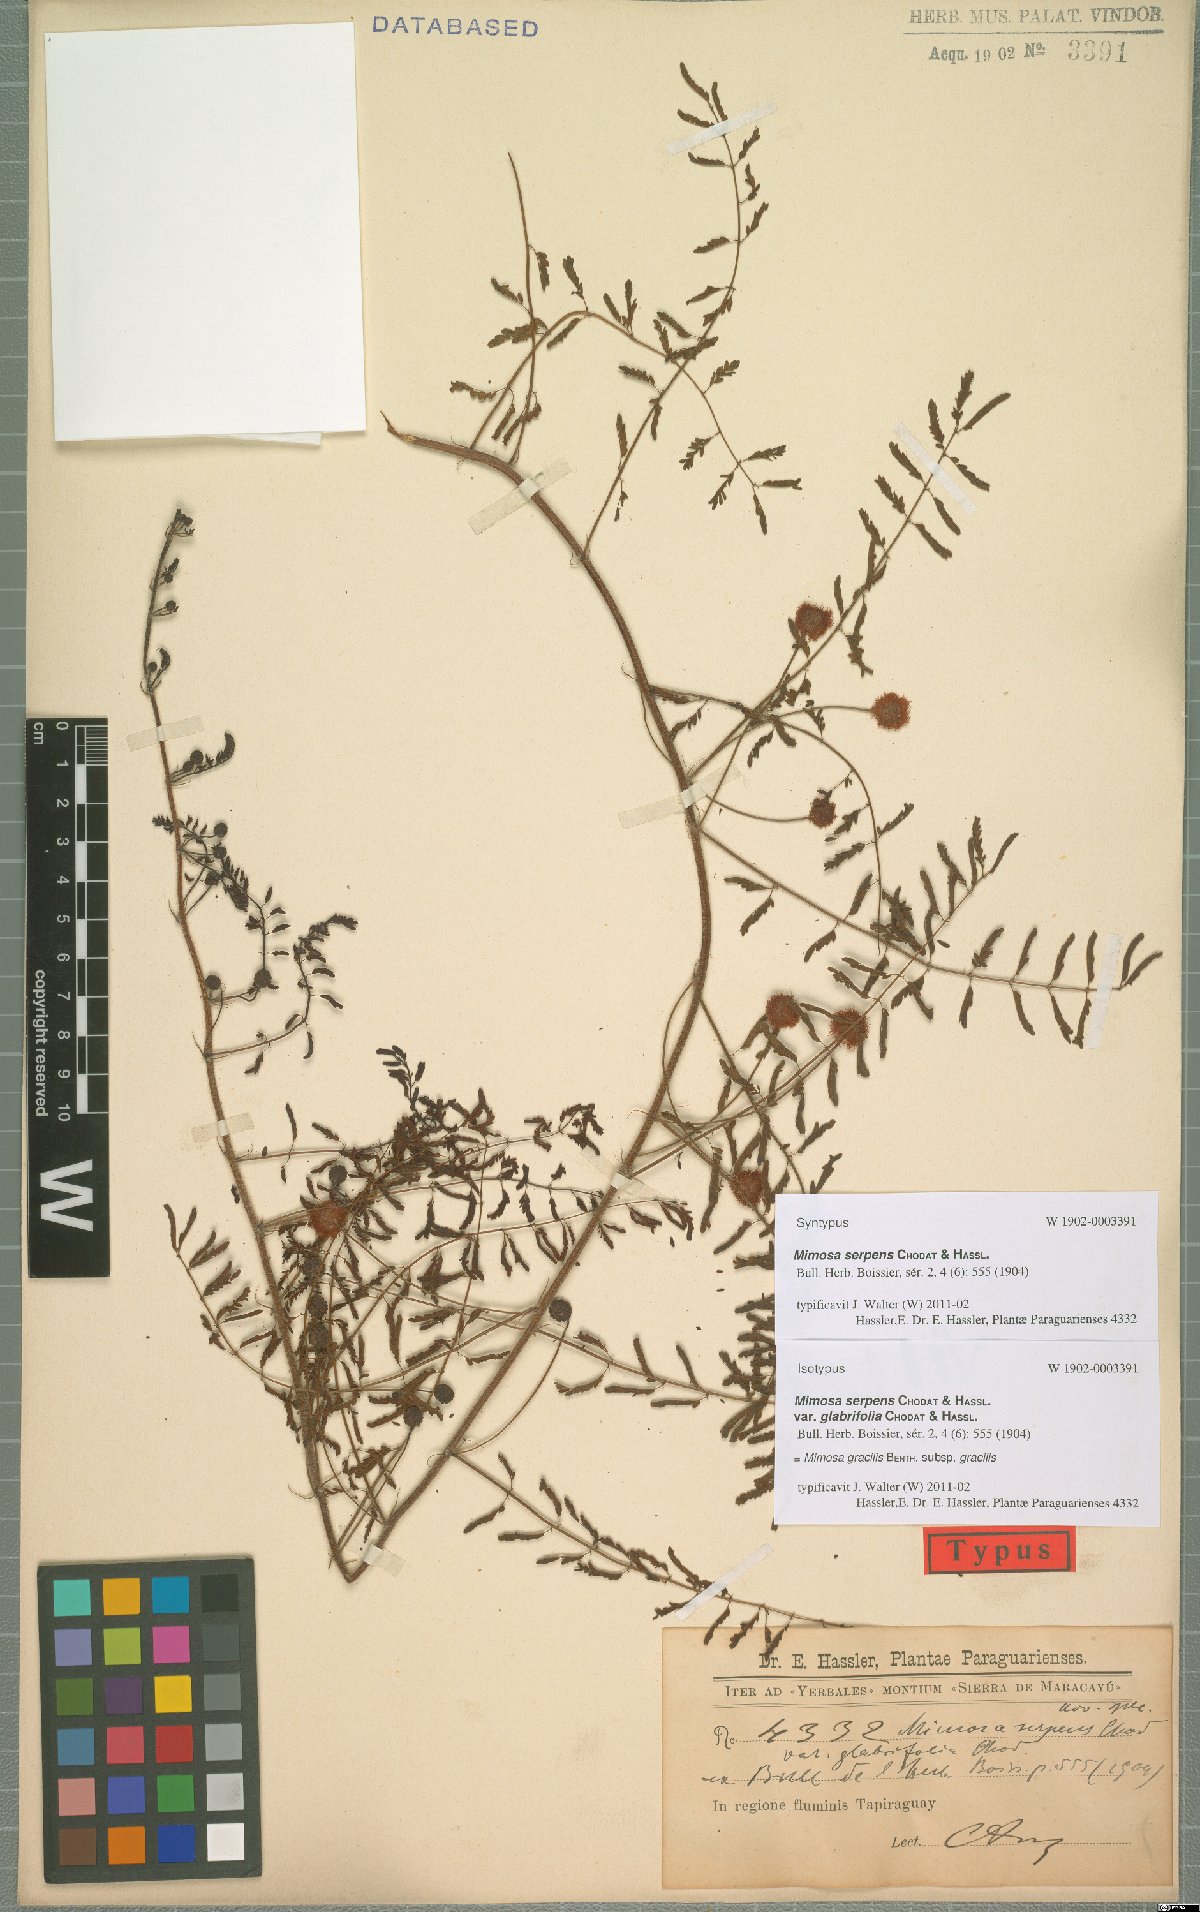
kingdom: Plantae
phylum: Tracheophyta
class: Magnoliopsida
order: Fabales
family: Fabaceae
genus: Mimosa
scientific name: Mimosa gracilis
